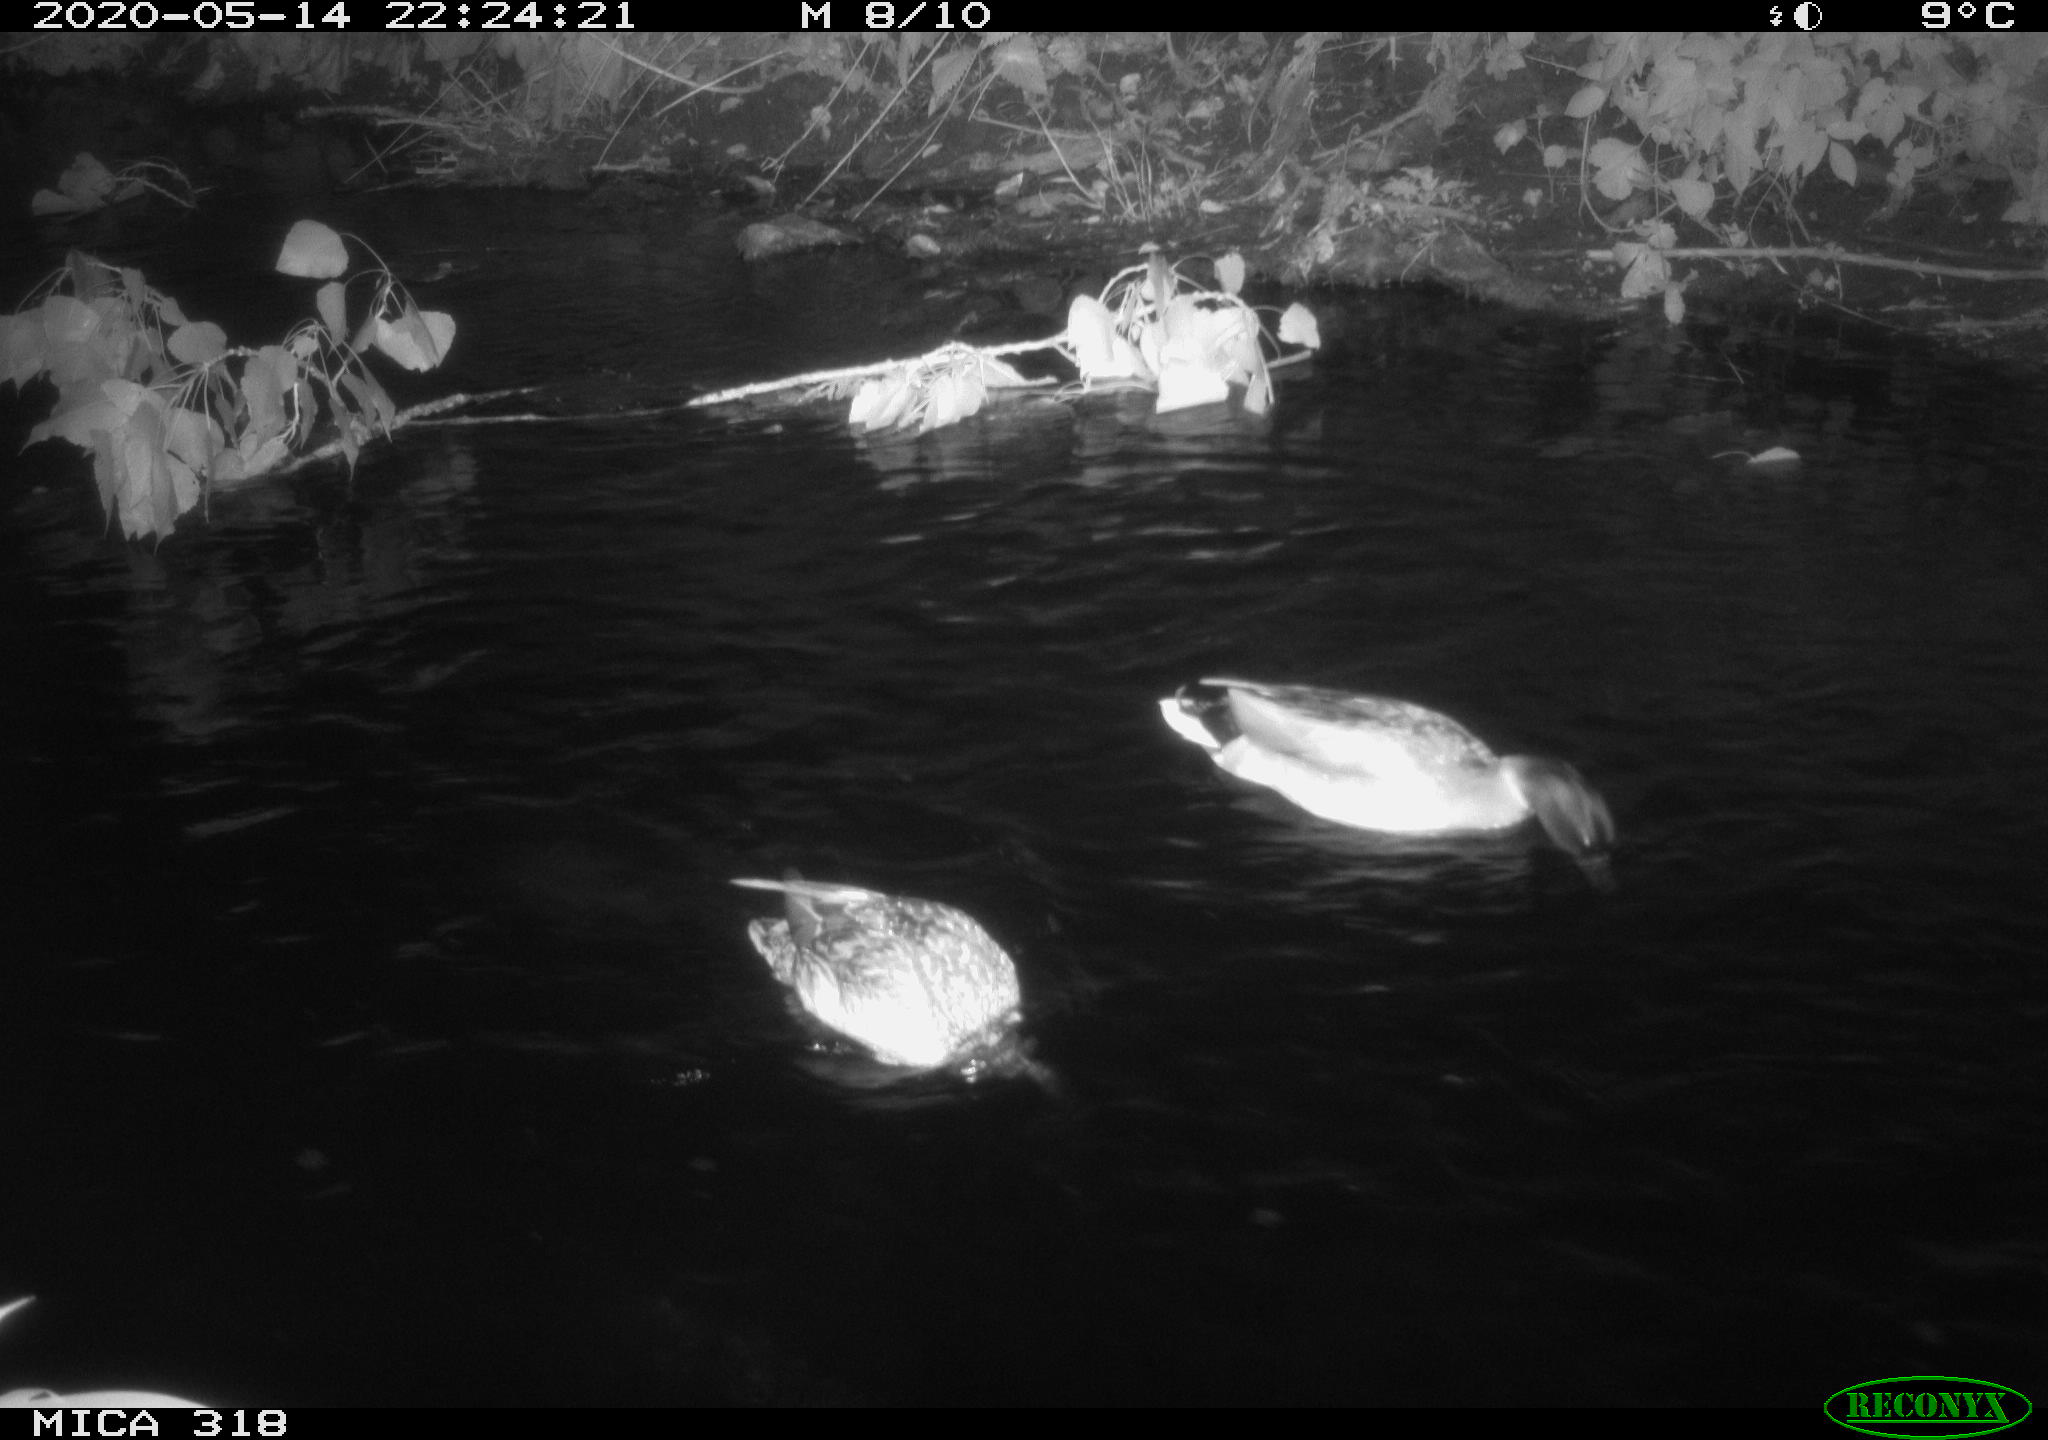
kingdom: Animalia
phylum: Chordata
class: Aves
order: Anseriformes
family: Anatidae
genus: Anas
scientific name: Anas platyrhynchos
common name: Mallard
